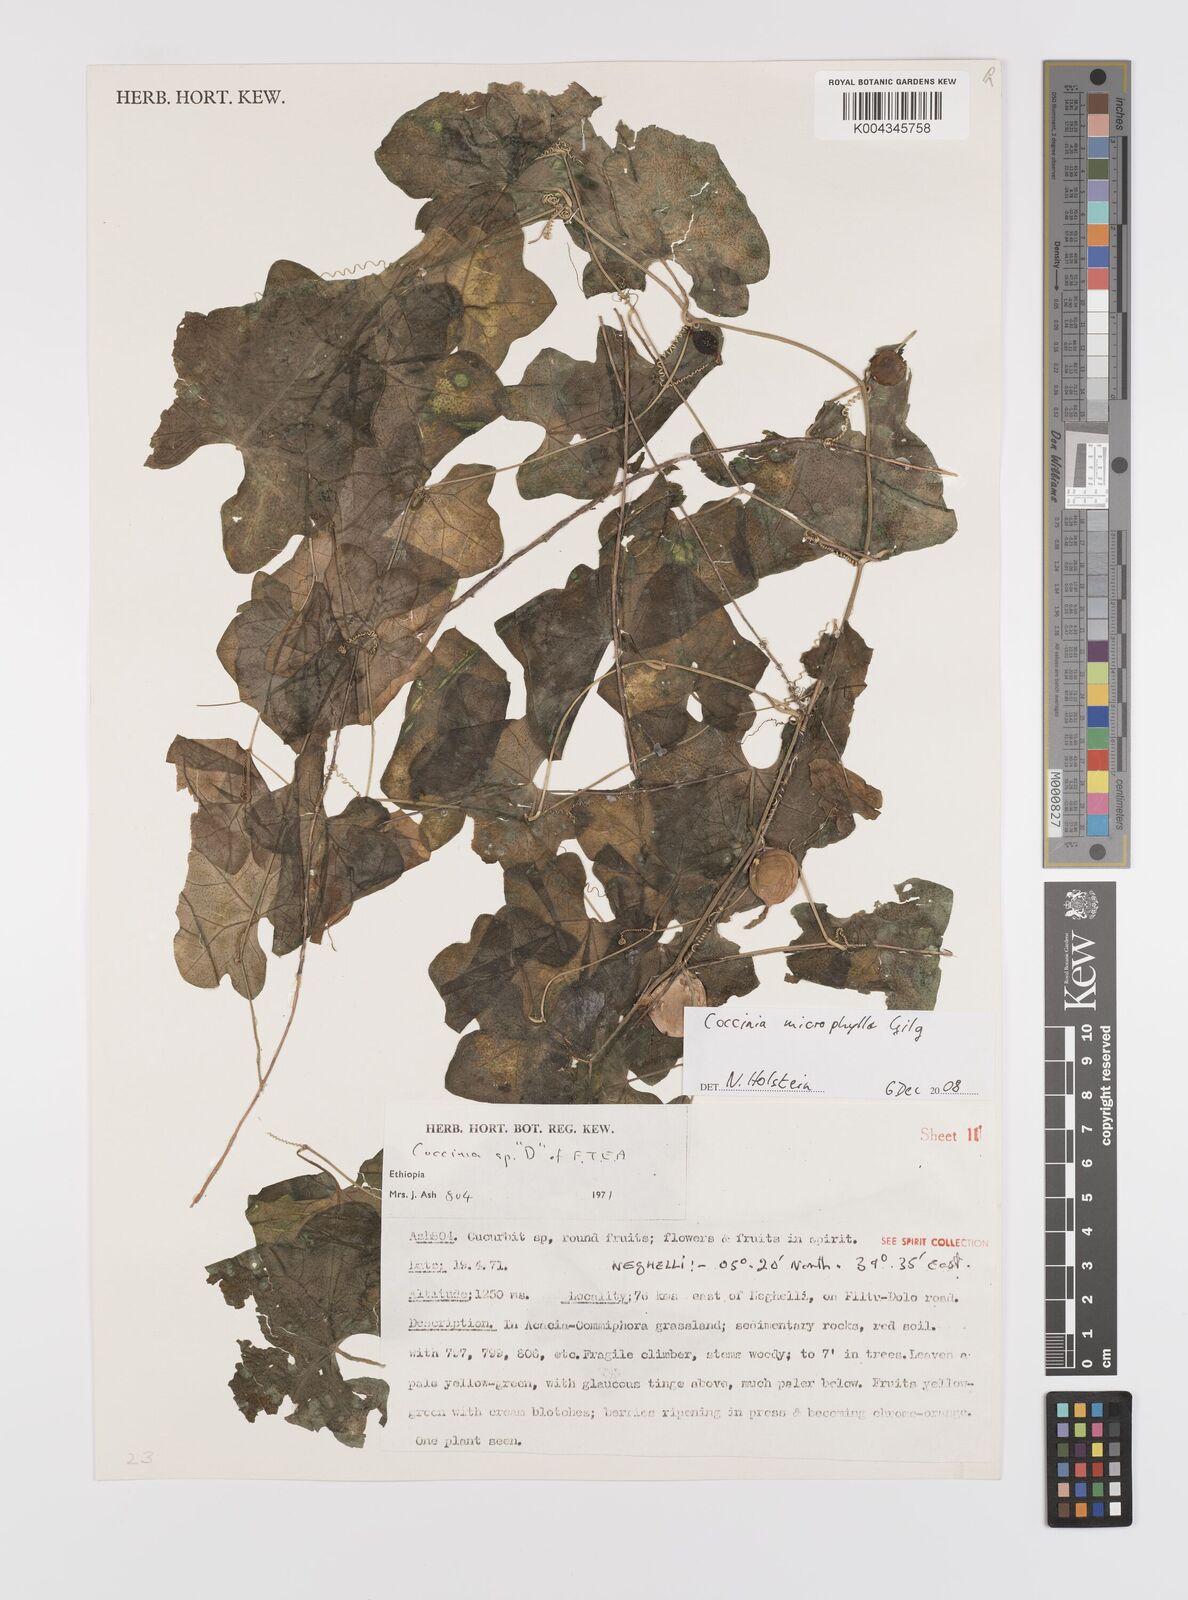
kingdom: Plantae
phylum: Tracheophyta
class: Magnoliopsida
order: Cucurbitales
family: Cucurbitaceae
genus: Coccinia
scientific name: Coccinia microphylla
